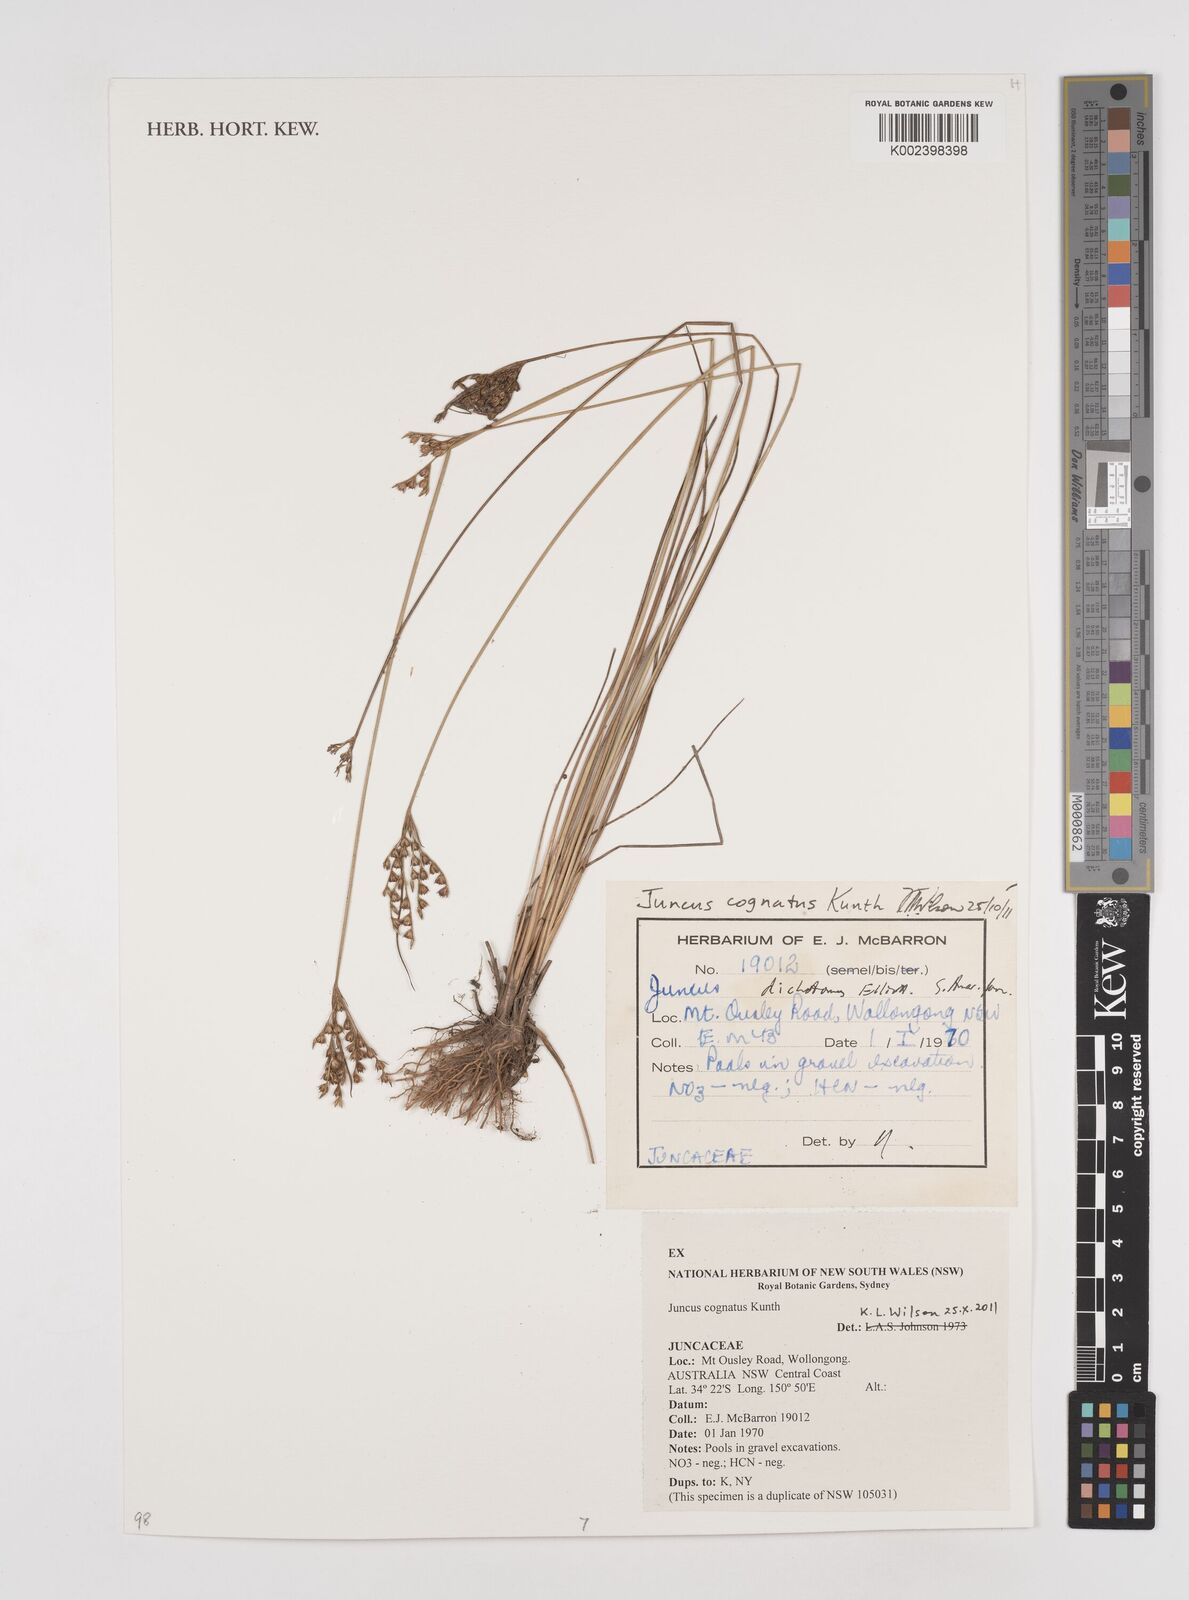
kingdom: Plantae
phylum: Tracheophyta
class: Liliopsida
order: Poales
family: Juncaceae
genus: Juncus
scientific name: Juncus dichotomus
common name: Forked rush
